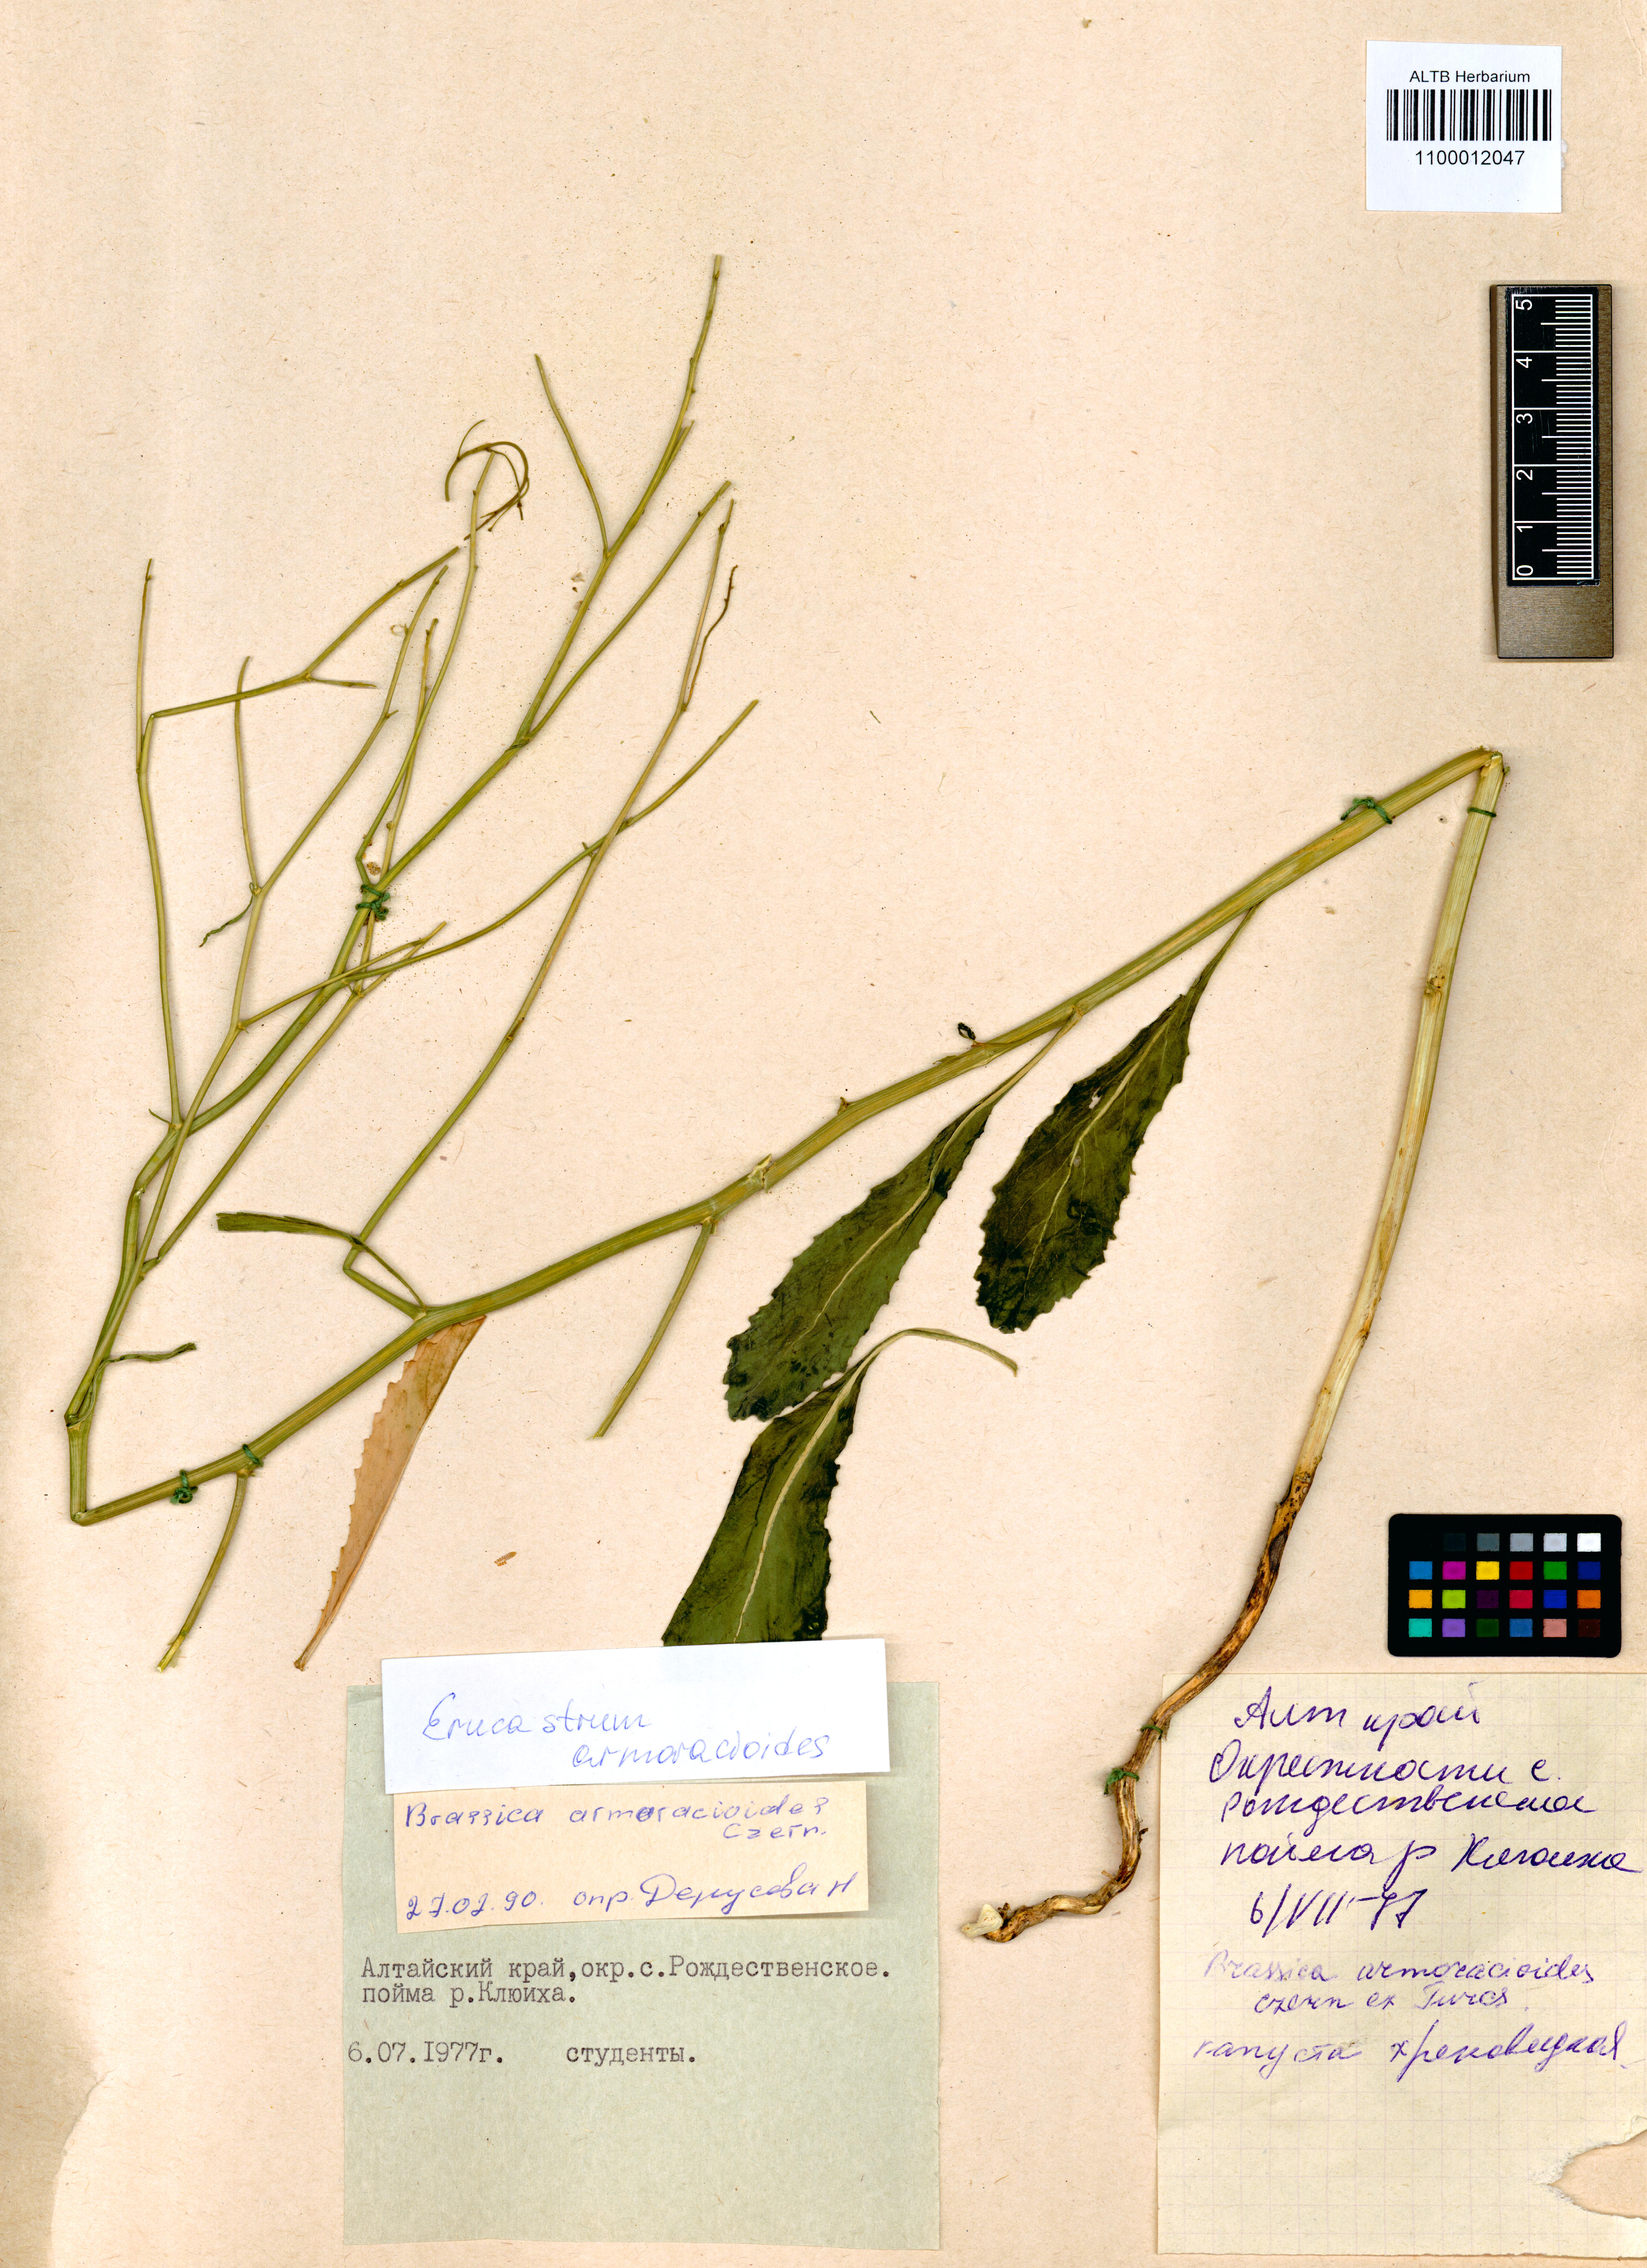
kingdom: Plantae
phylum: Tracheophyta
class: Magnoliopsida
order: Brassicales
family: Brassicaceae
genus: Brassica
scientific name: Brassica elongata
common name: Long-stalked rape
